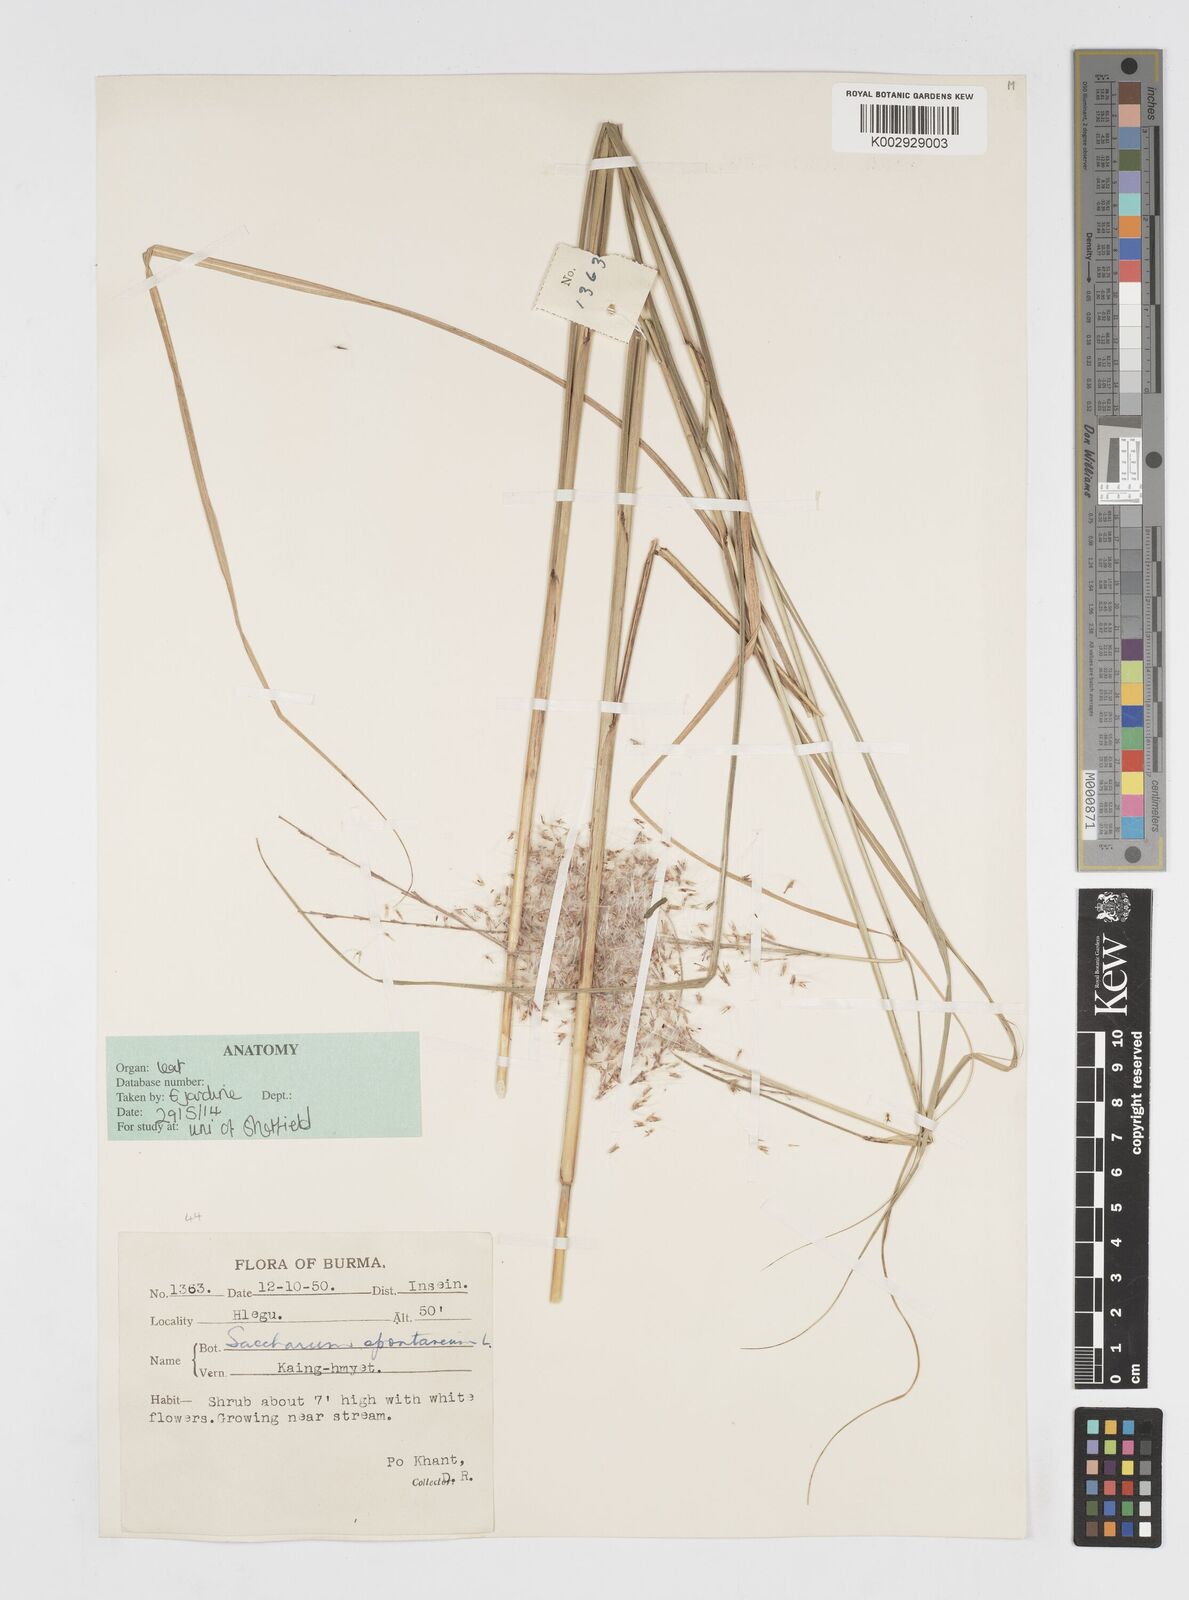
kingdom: Plantae
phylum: Tracheophyta
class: Liliopsida
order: Poales
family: Poaceae
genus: Saccharum
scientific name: Saccharum spontaneum
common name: Wild sugarcane
